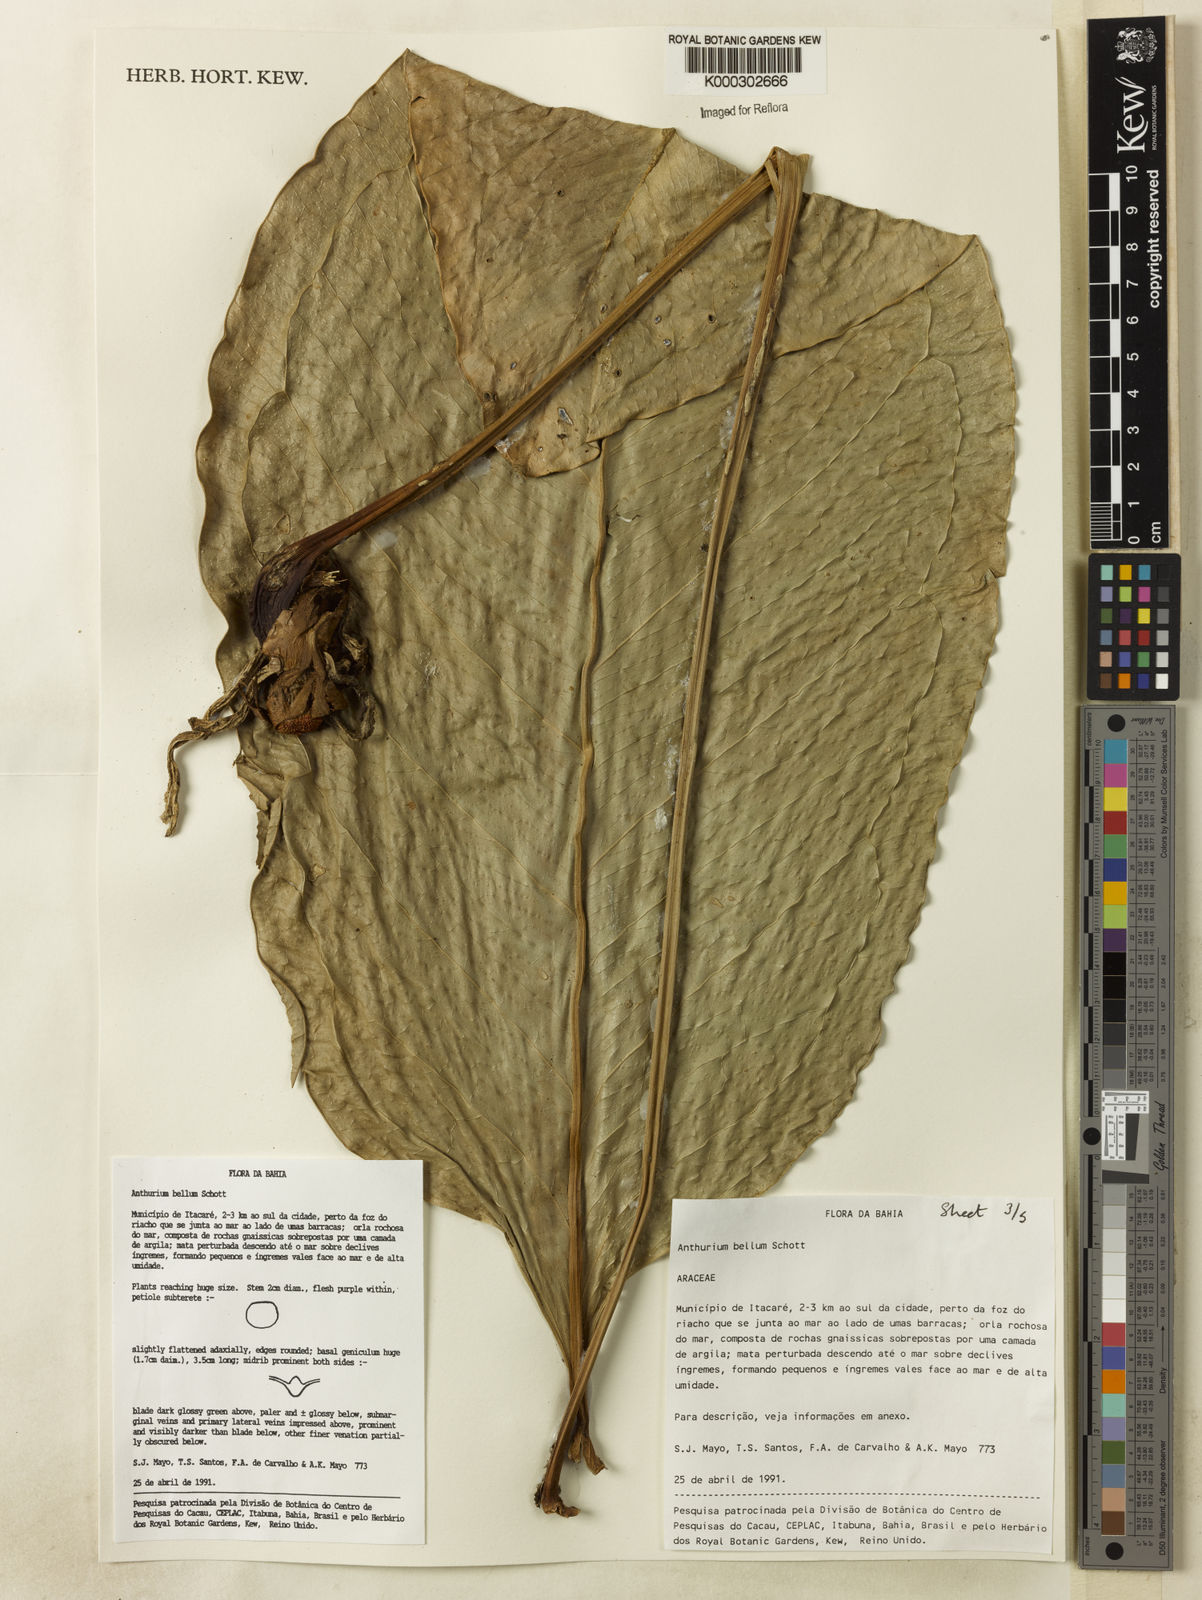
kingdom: Plantae
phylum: Tracheophyta
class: Liliopsida
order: Alismatales
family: Araceae
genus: Anthurium
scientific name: Anthurium bellum
